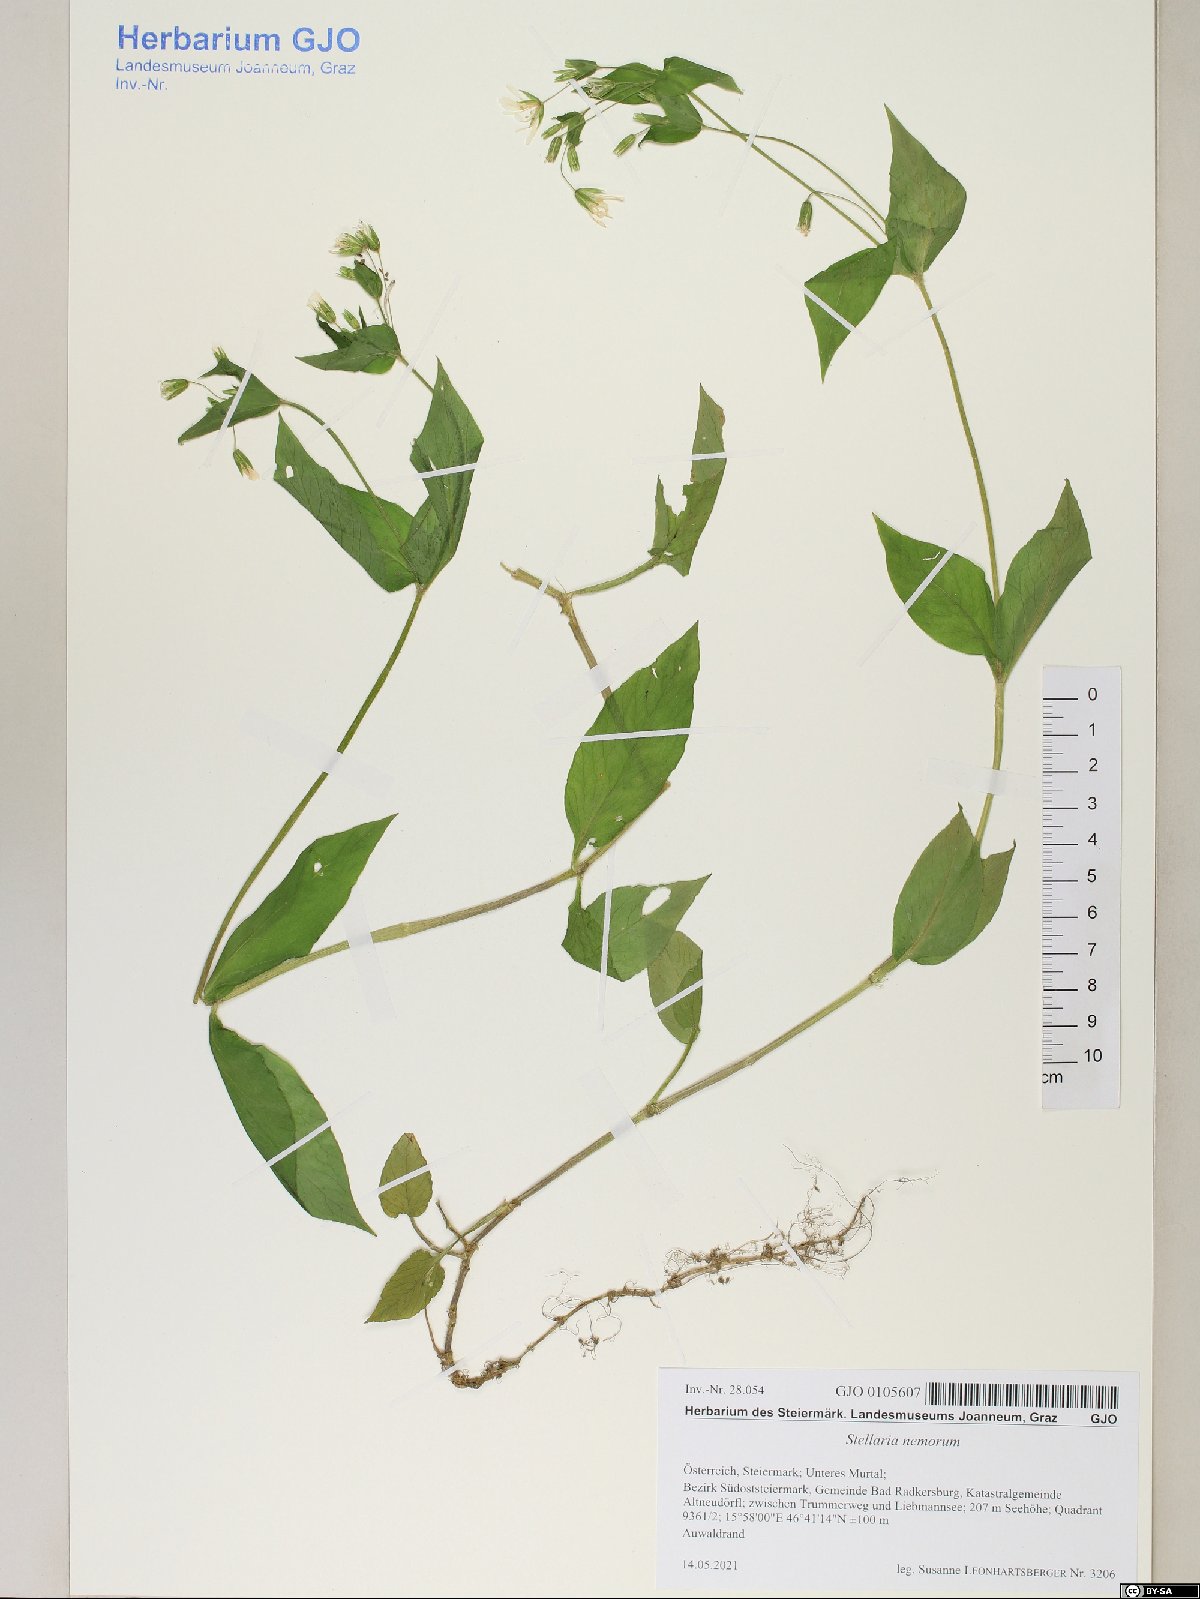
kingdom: Plantae
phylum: Tracheophyta
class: Magnoliopsida
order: Caryophyllales
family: Caryophyllaceae
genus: Stellaria
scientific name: Stellaria nemorum
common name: Wood stitchwort
